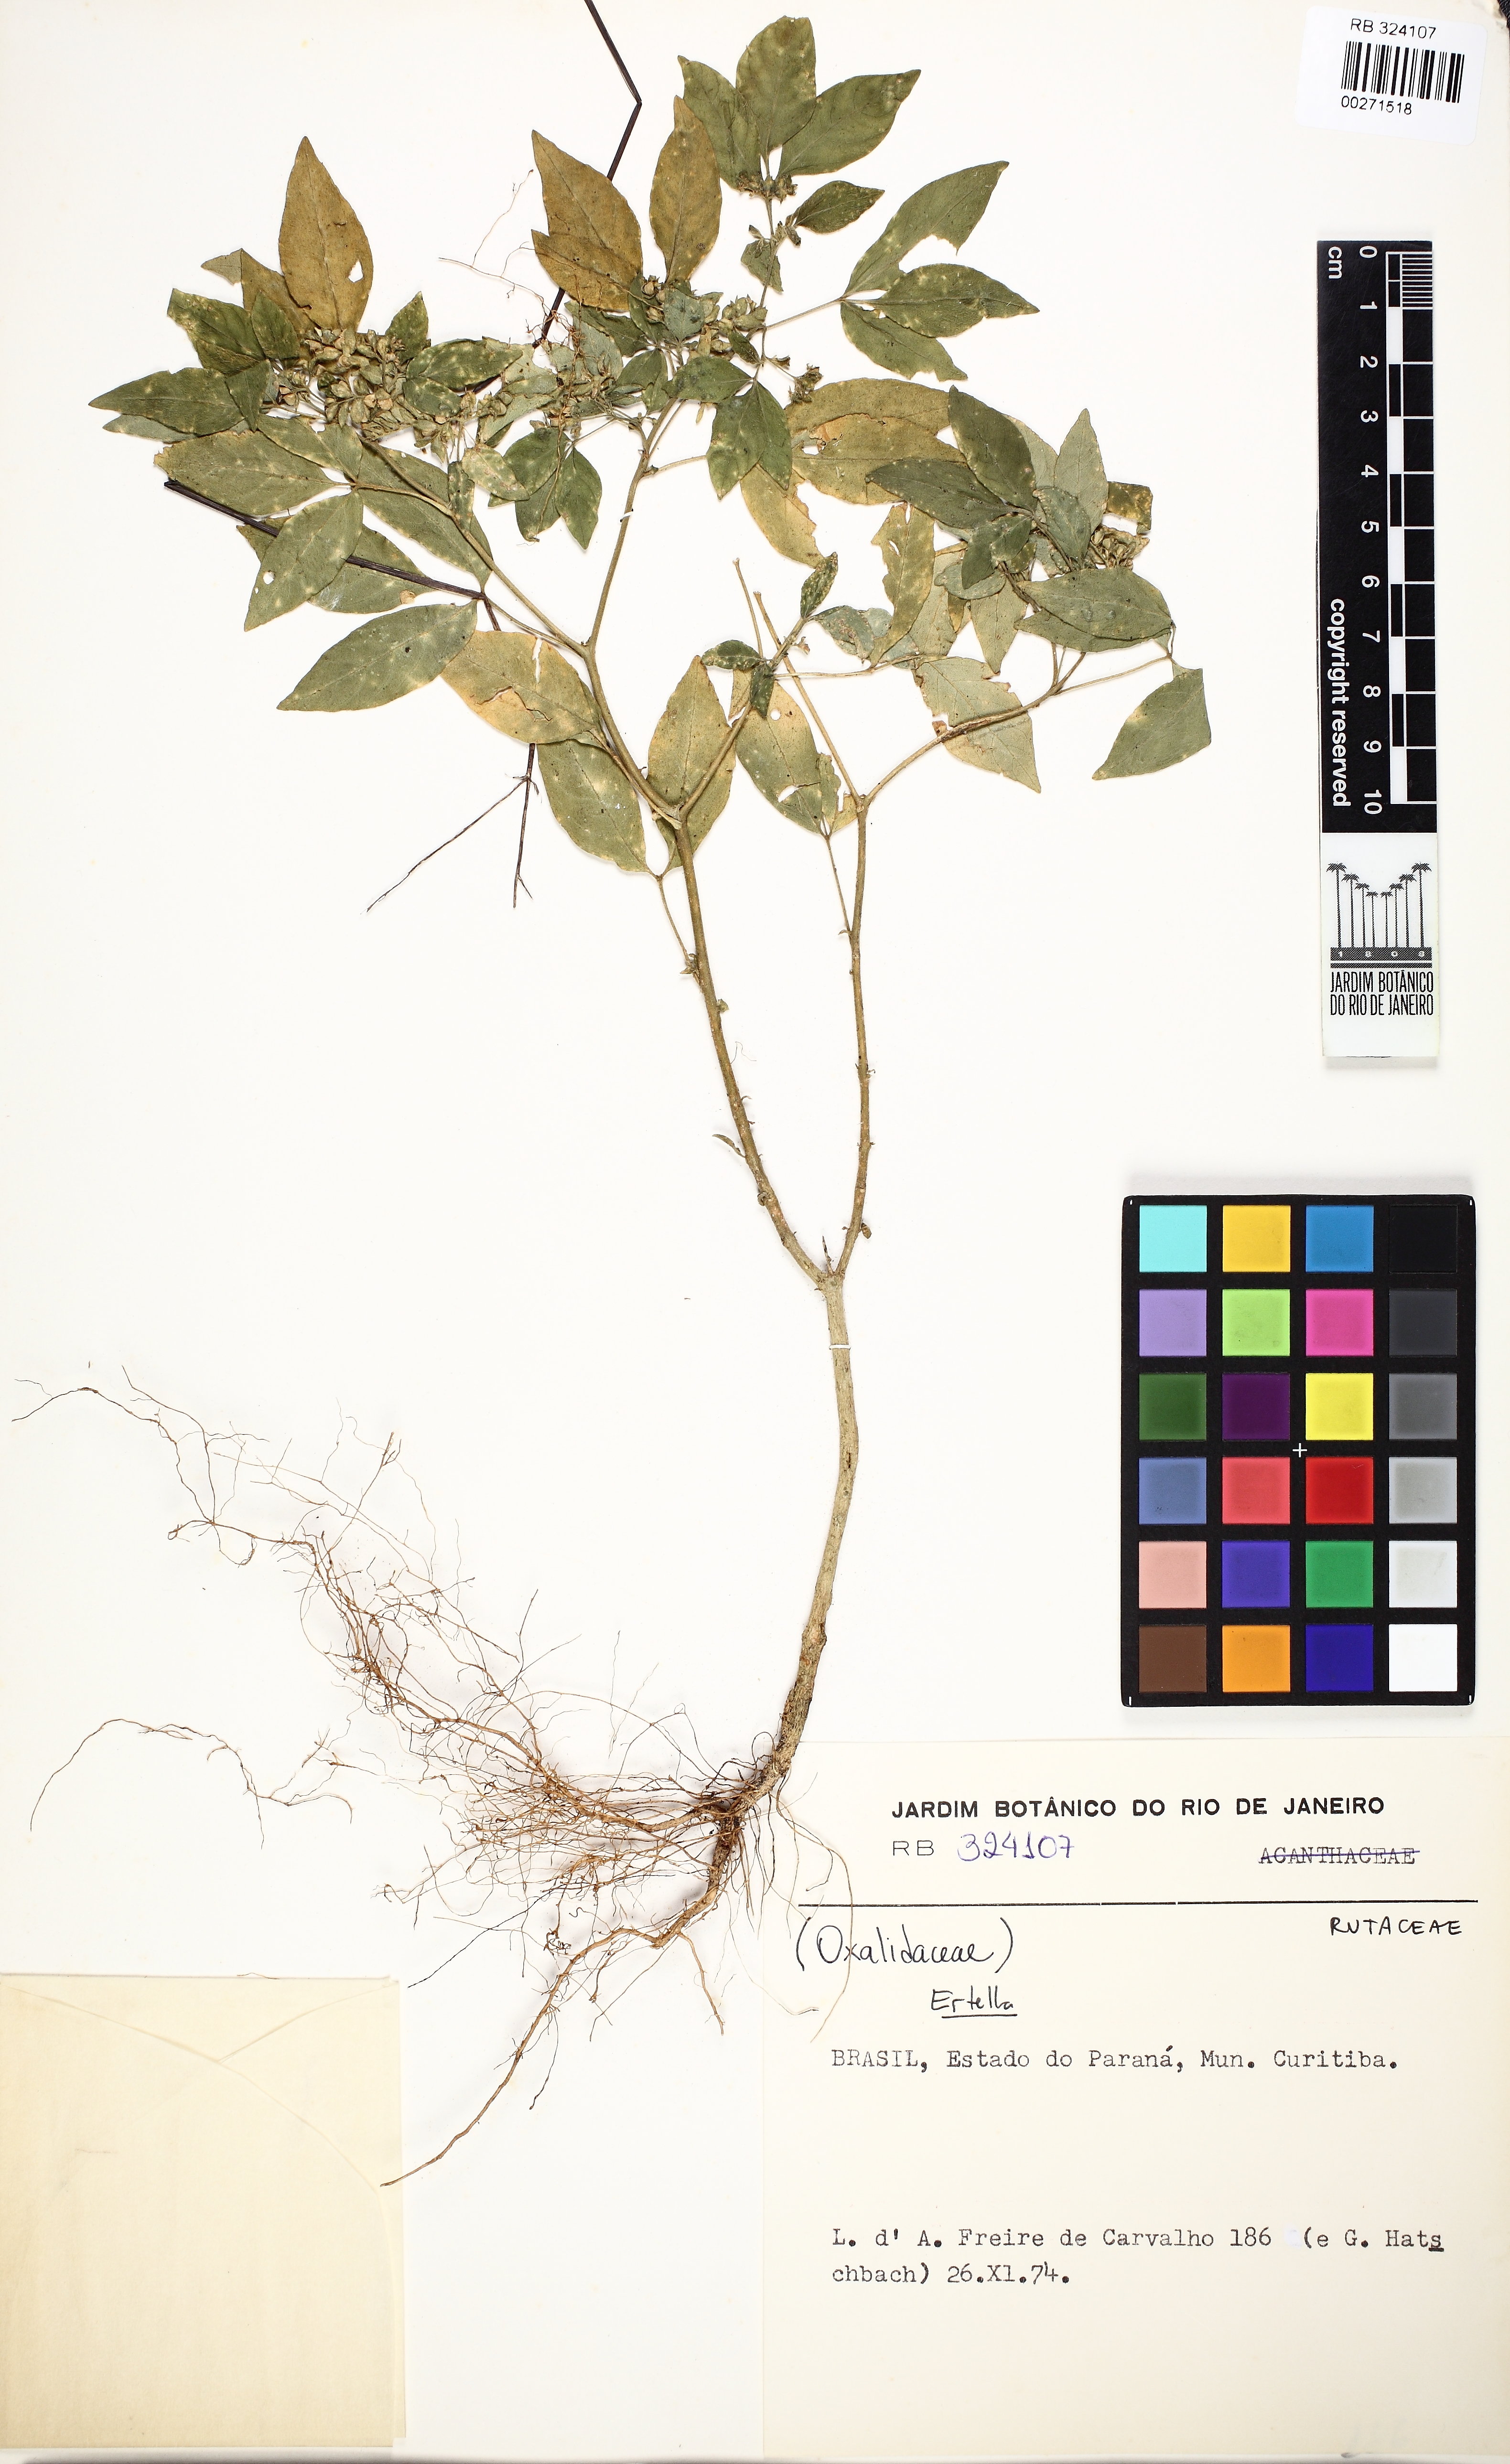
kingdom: Plantae
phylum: Tracheophyta
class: Magnoliopsida
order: Sapindales
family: Rutaceae
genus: Ertela
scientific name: Ertela trifolia
